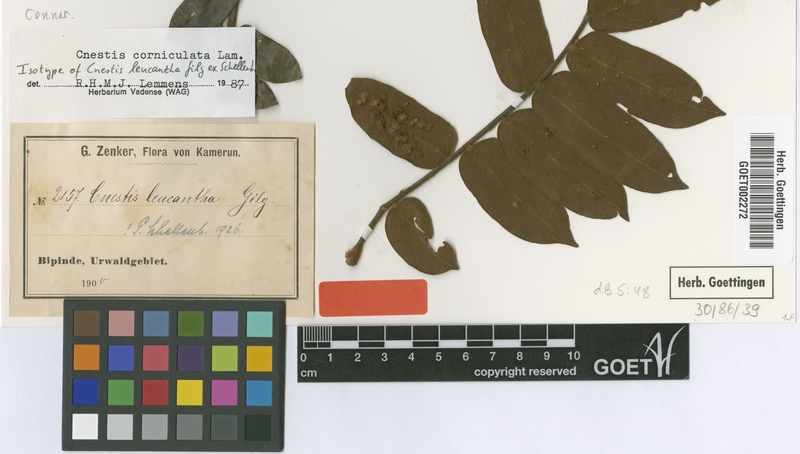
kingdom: Plantae
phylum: Tracheophyta
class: Magnoliopsida
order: Oxalidales
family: Connaraceae
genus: Cnestis
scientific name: Cnestis corniculata
